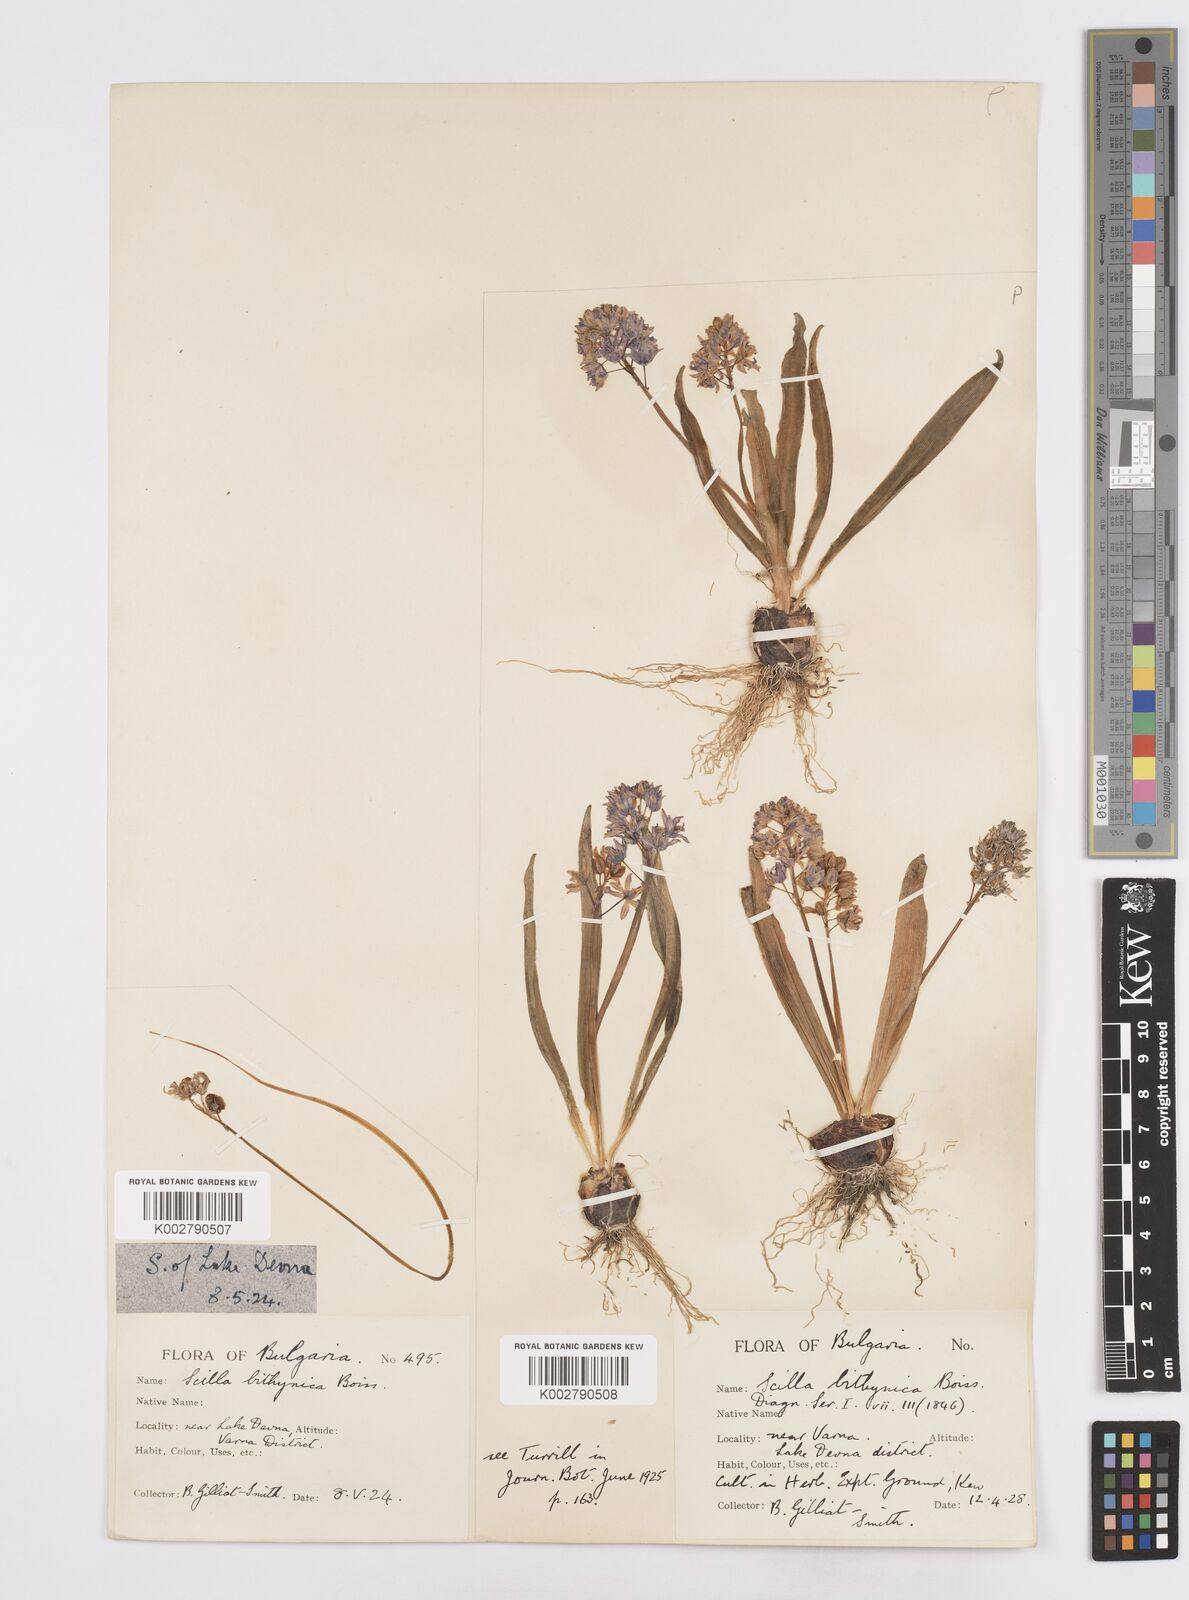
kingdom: Plantae
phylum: Tracheophyta
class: Liliopsida
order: Asparagales
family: Asparagaceae
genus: Scilla
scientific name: Scilla bithynica
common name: Turkish squill
